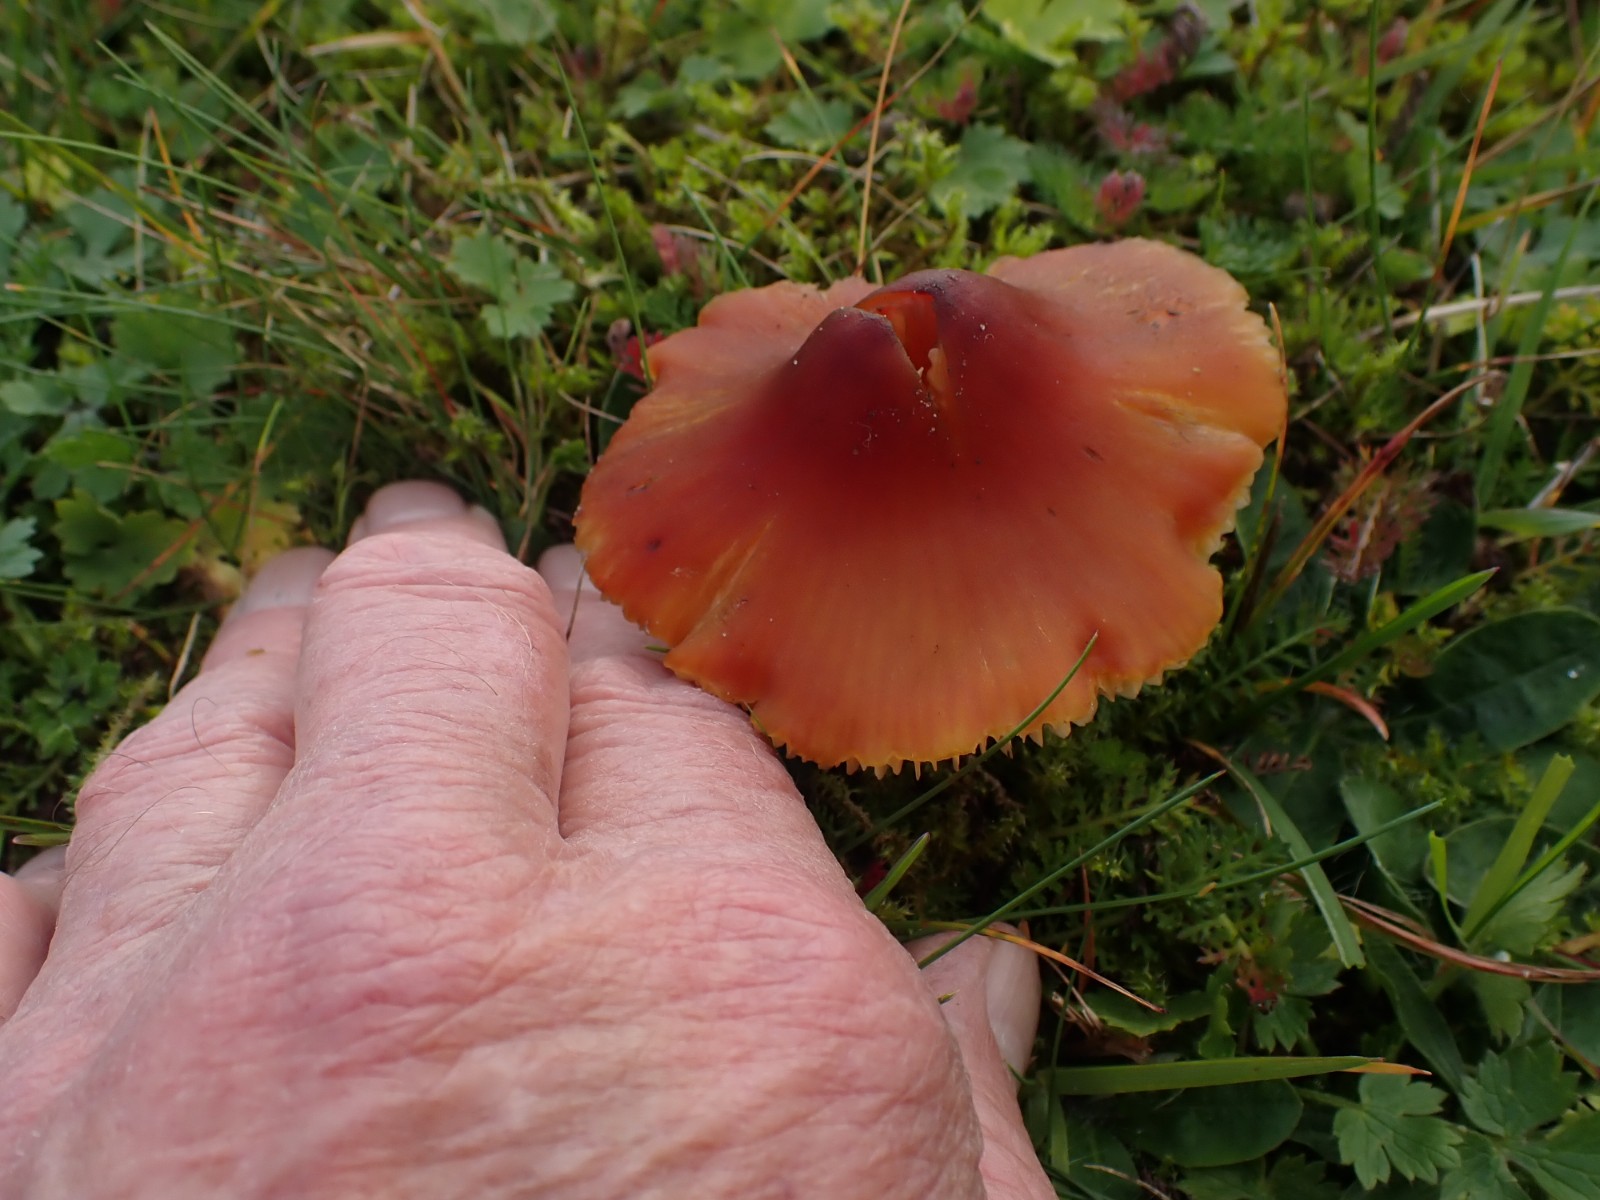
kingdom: Fungi
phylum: Basidiomycota
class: Agaricomycetes
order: Agaricales
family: Hygrophoraceae
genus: Hygrocybe
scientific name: Hygrocybe conica
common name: kegle-vokshat
